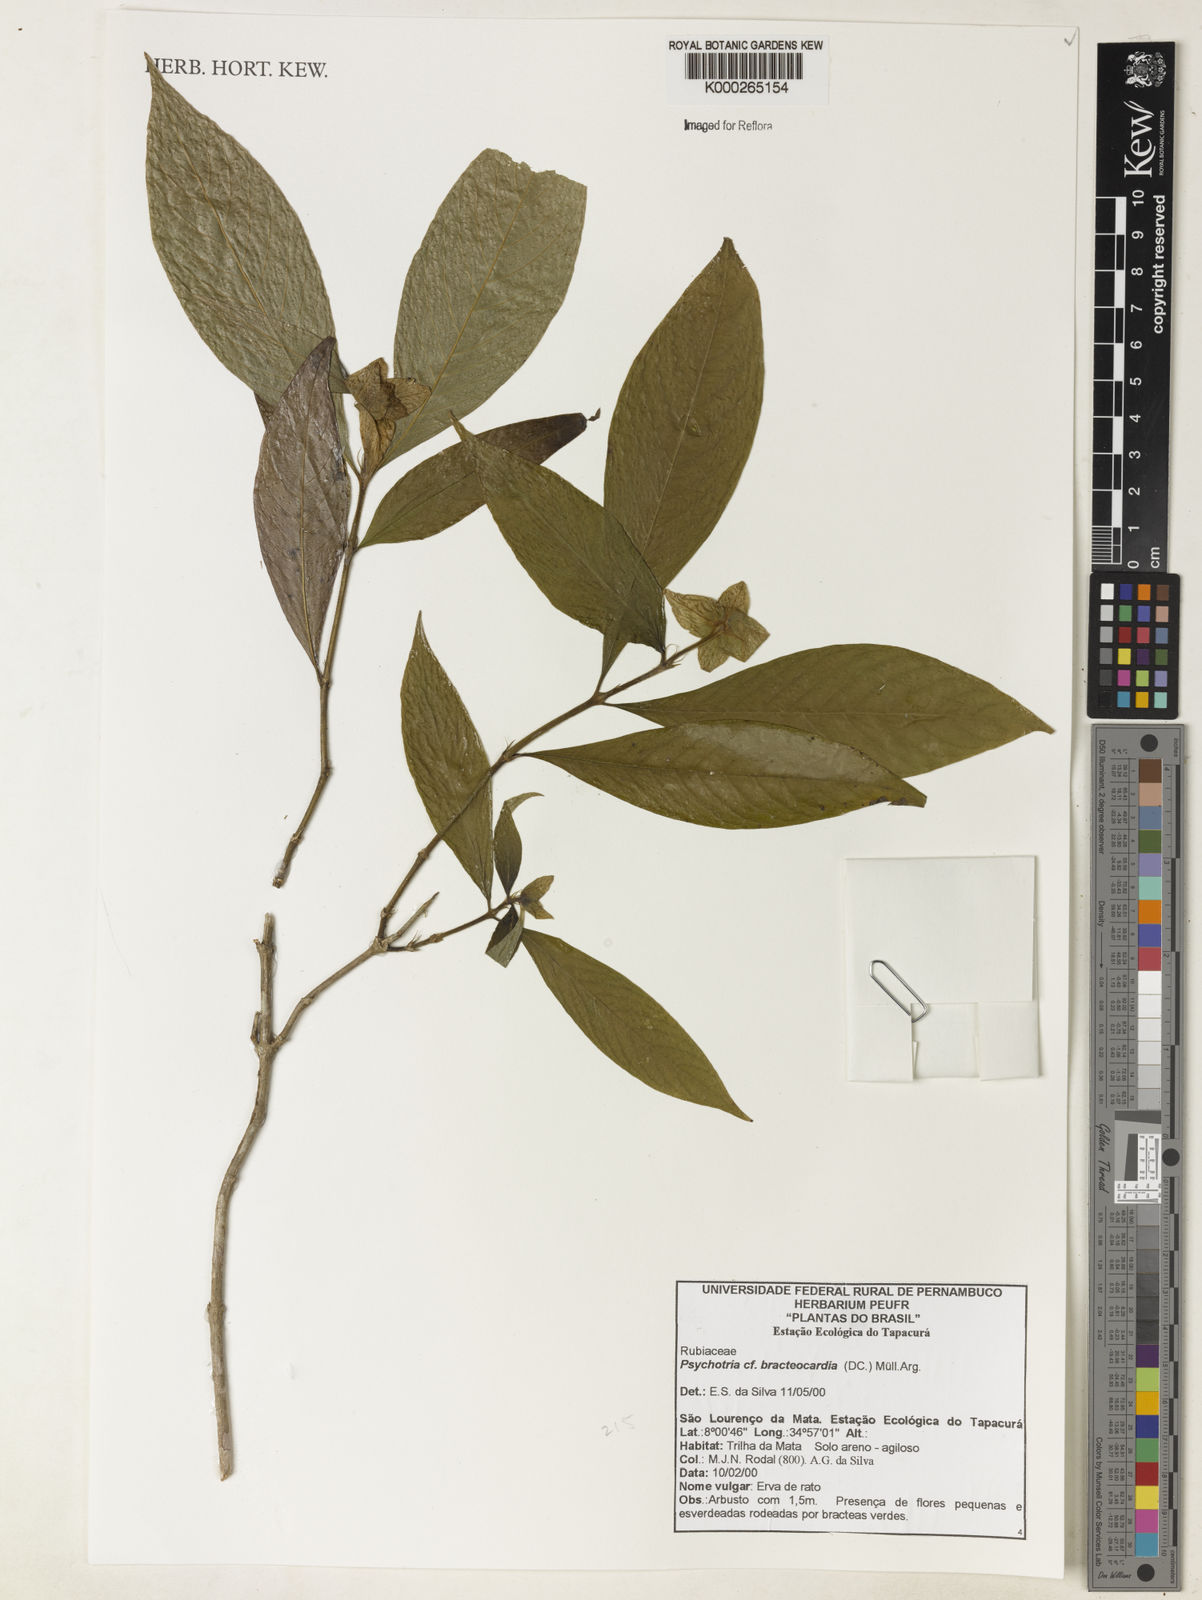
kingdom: Plantae
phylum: Tracheophyta
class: Magnoliopsida
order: Gentianales
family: Rubiaceae
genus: Palicourea
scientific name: Palicourea bracteocardia
